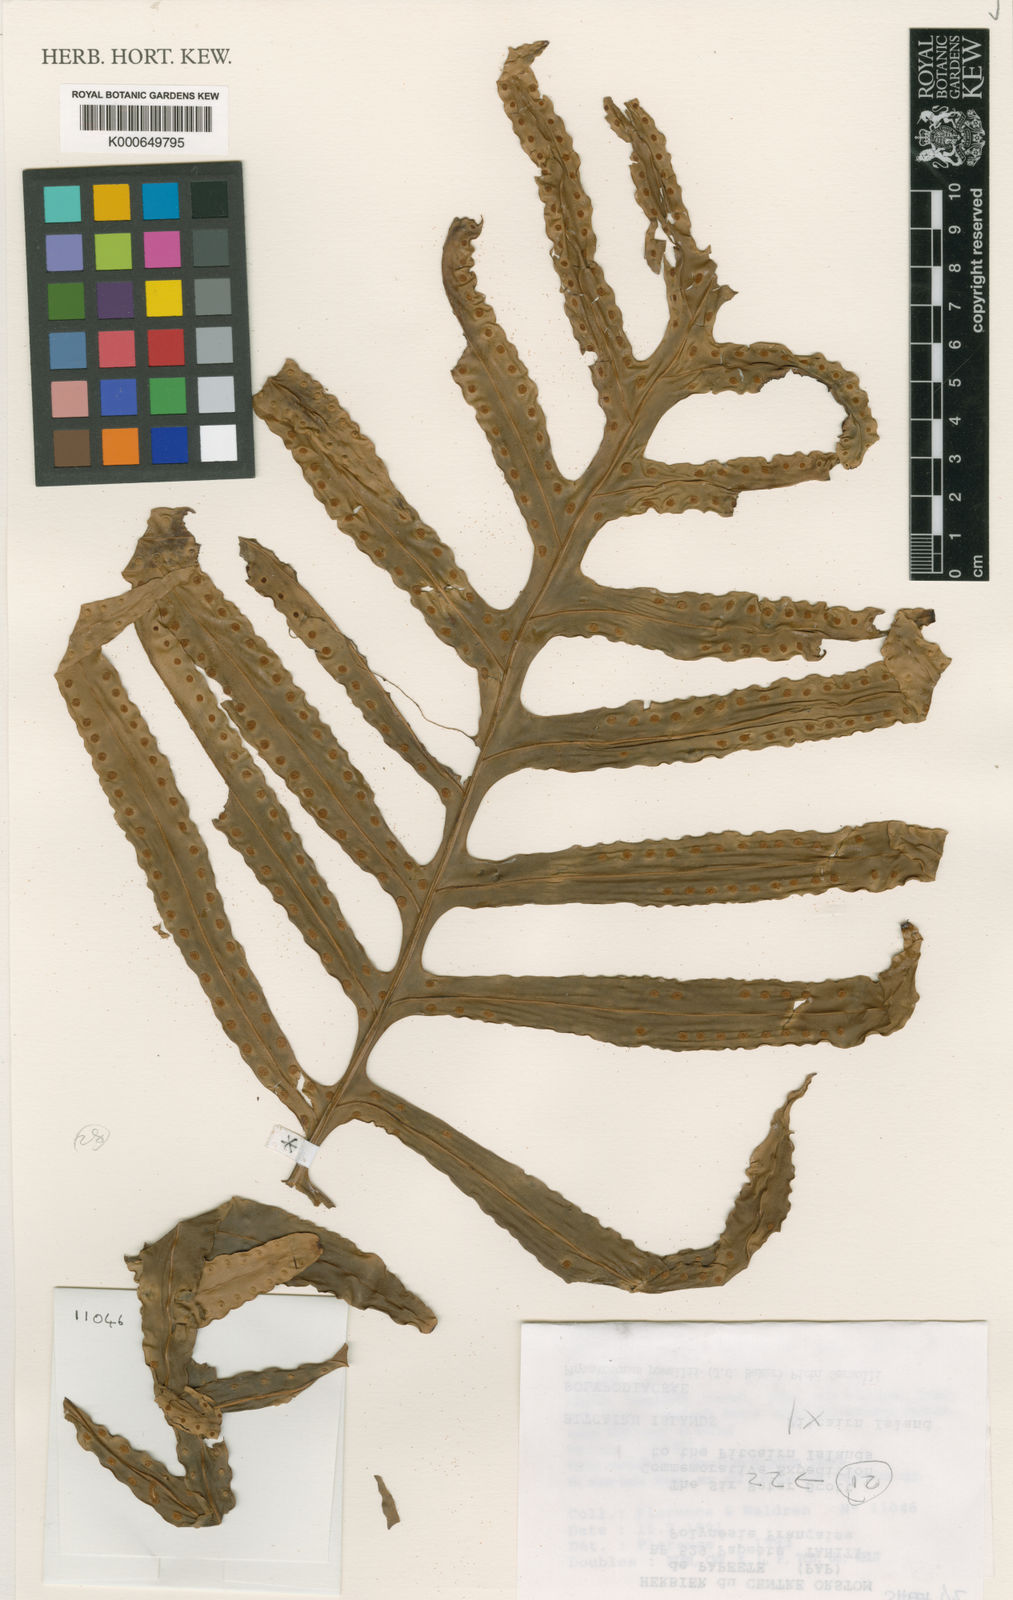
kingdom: Plantae
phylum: Tracheophyta
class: Polypodiopsida
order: Polypodiales
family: Polypodiaceae
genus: Microsorum
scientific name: Microsorum powellii
